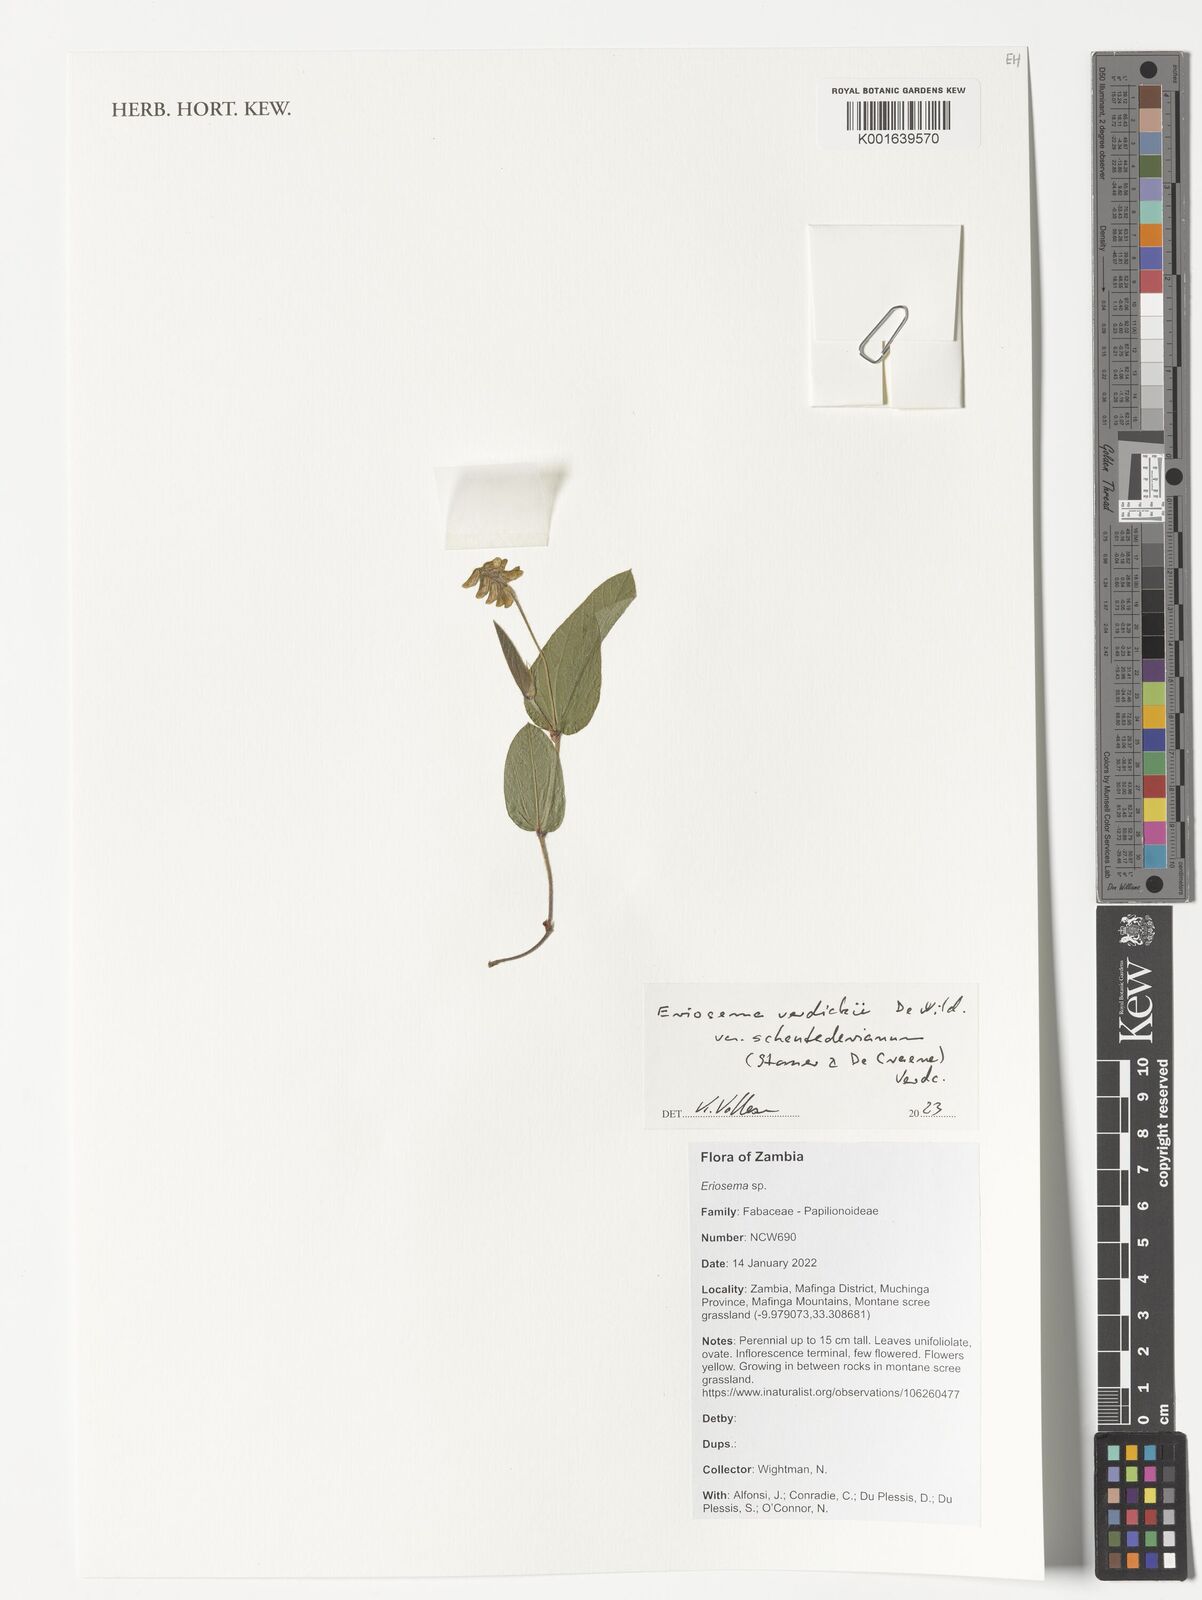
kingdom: Plantae
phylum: Tracheophyta
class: Magnoliopsida
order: Fabales
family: Fabaceae
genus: Eriosema
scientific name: Eriosema verdickii
